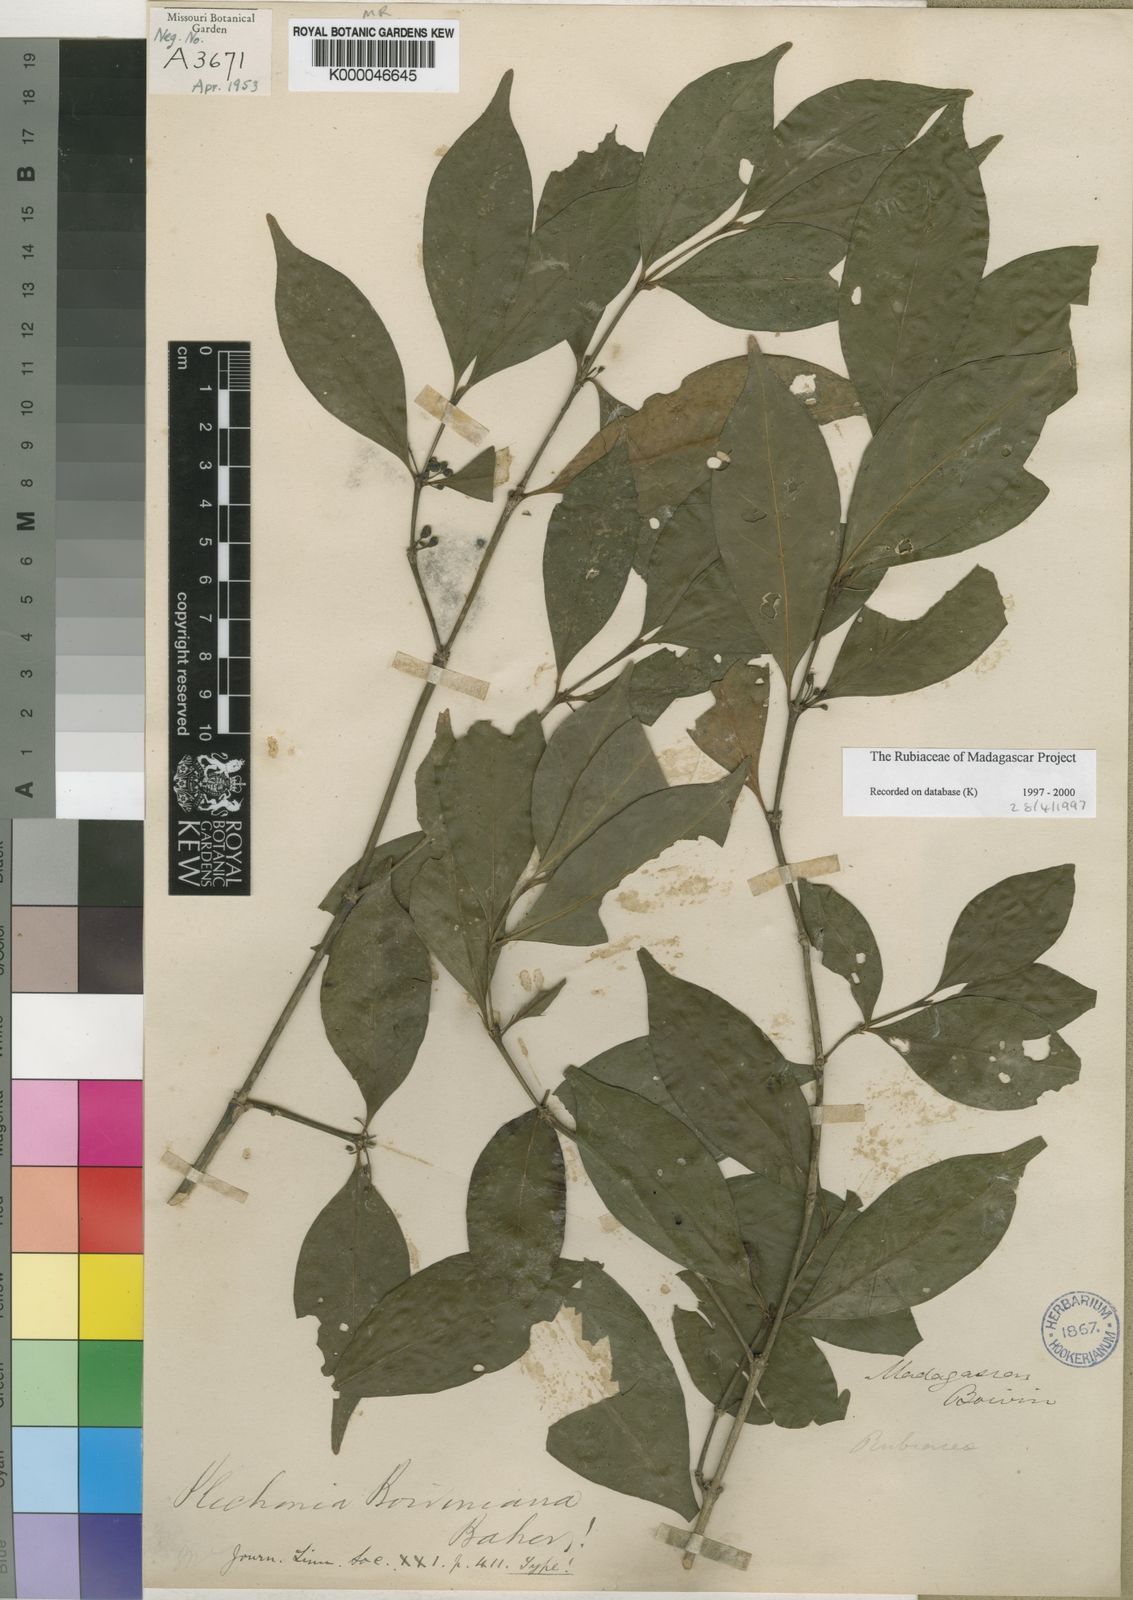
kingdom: Plantae
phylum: Tracheophyta
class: Magnoliopsida
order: Gentianales
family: Rubiaceae
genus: Canthium
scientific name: Canthium
